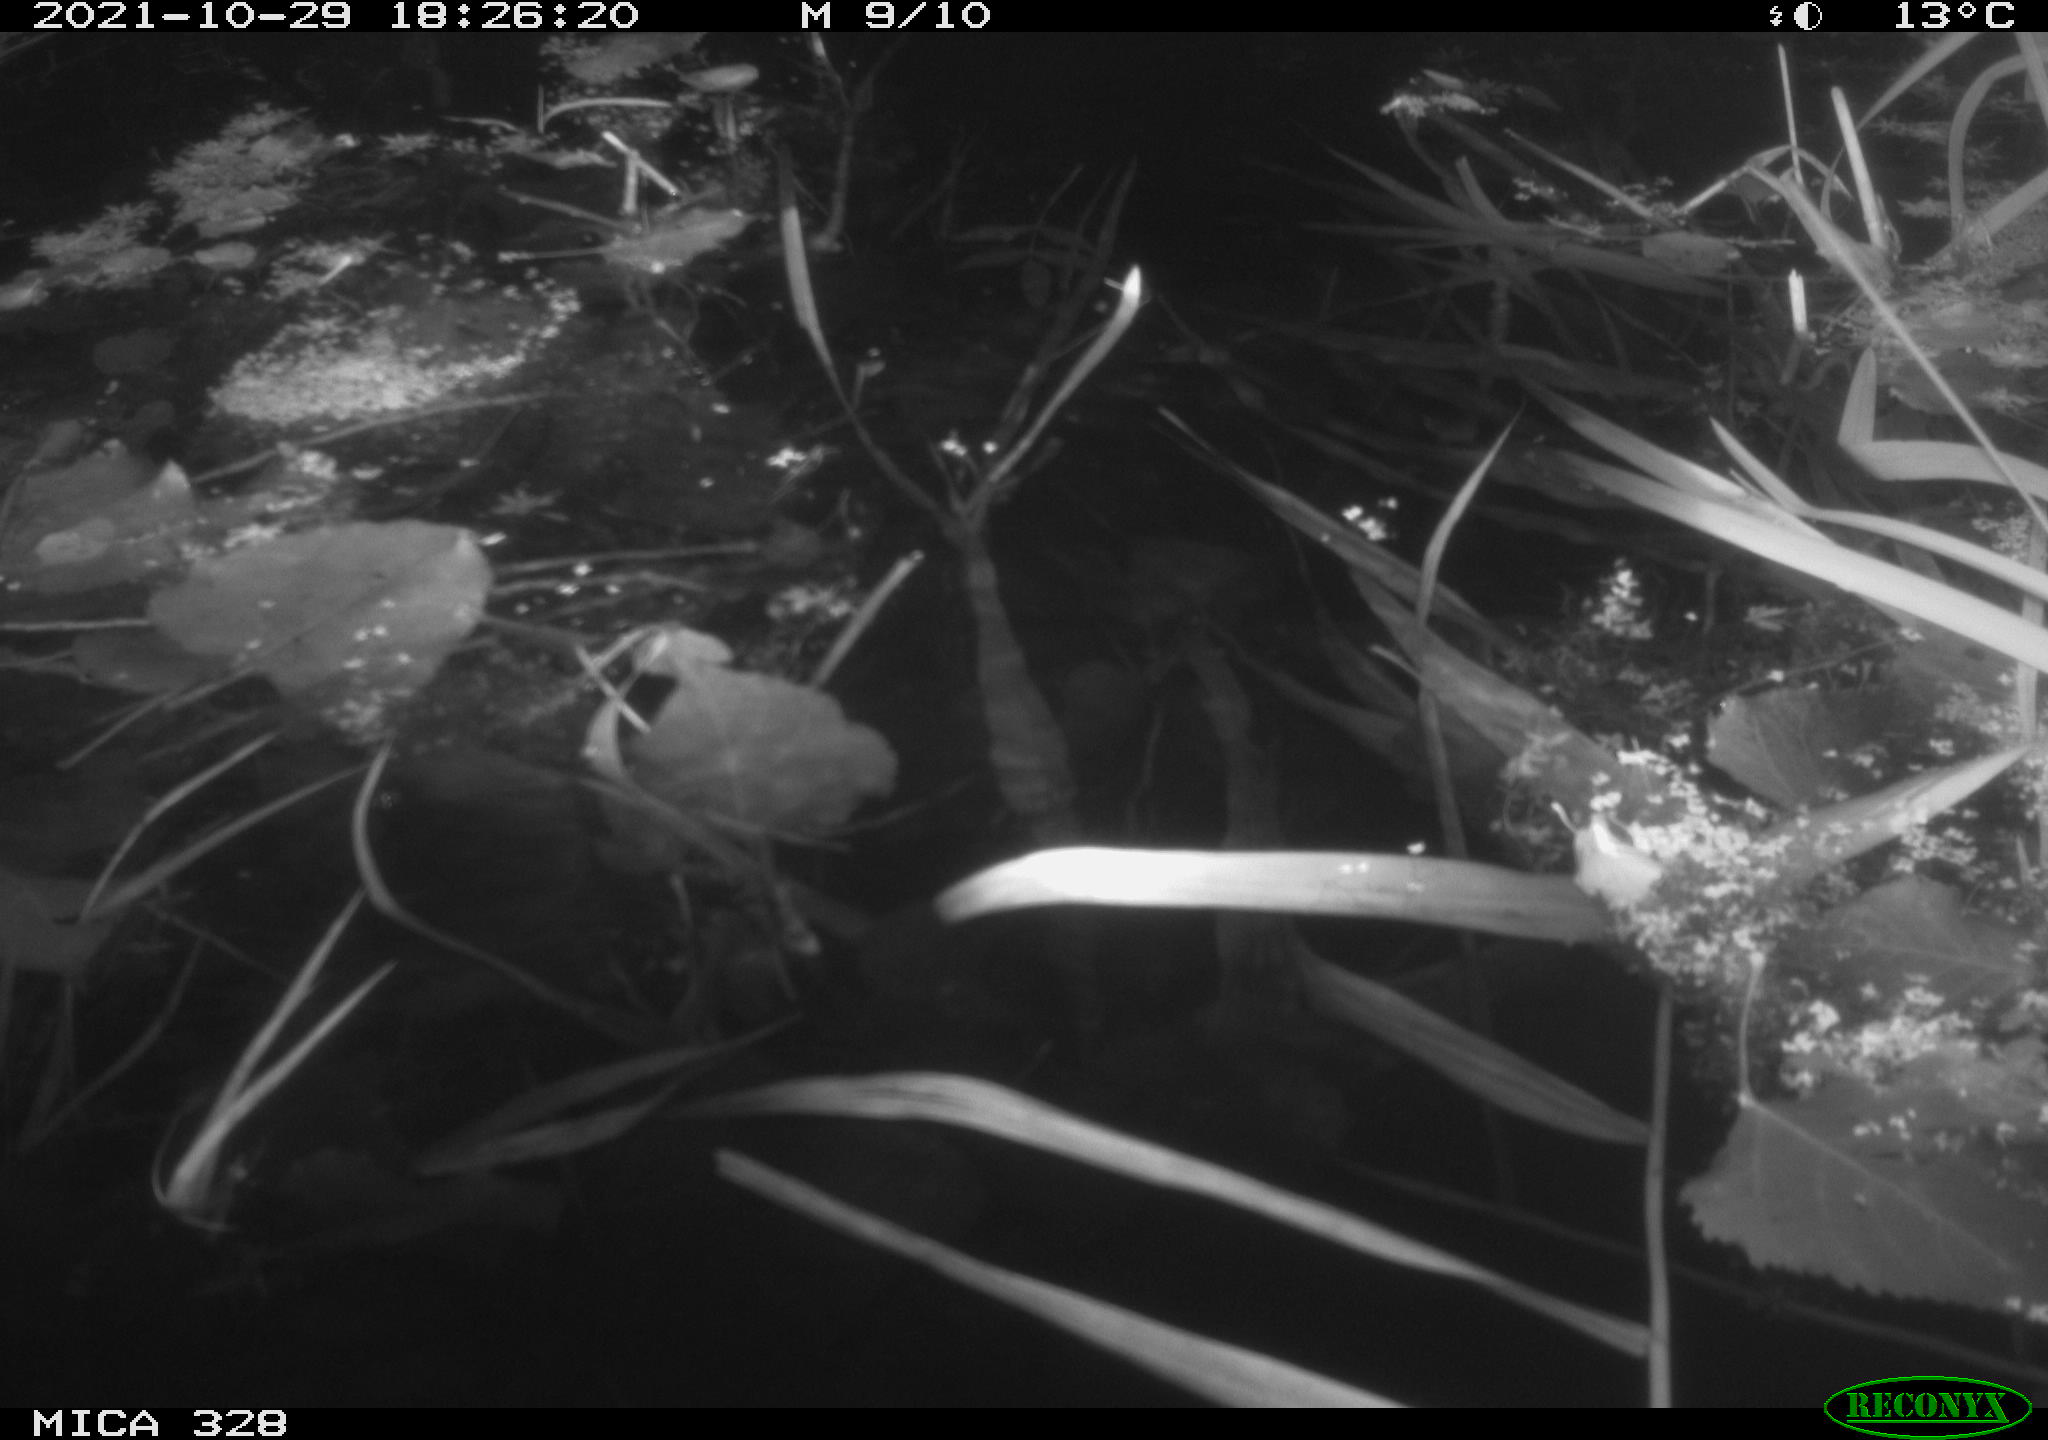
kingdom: Animalia
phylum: Chordata
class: Mammalia
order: Rodentia
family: Cricetidae
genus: Ondatra
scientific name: Ondatra zibethicus
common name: Muskrat
